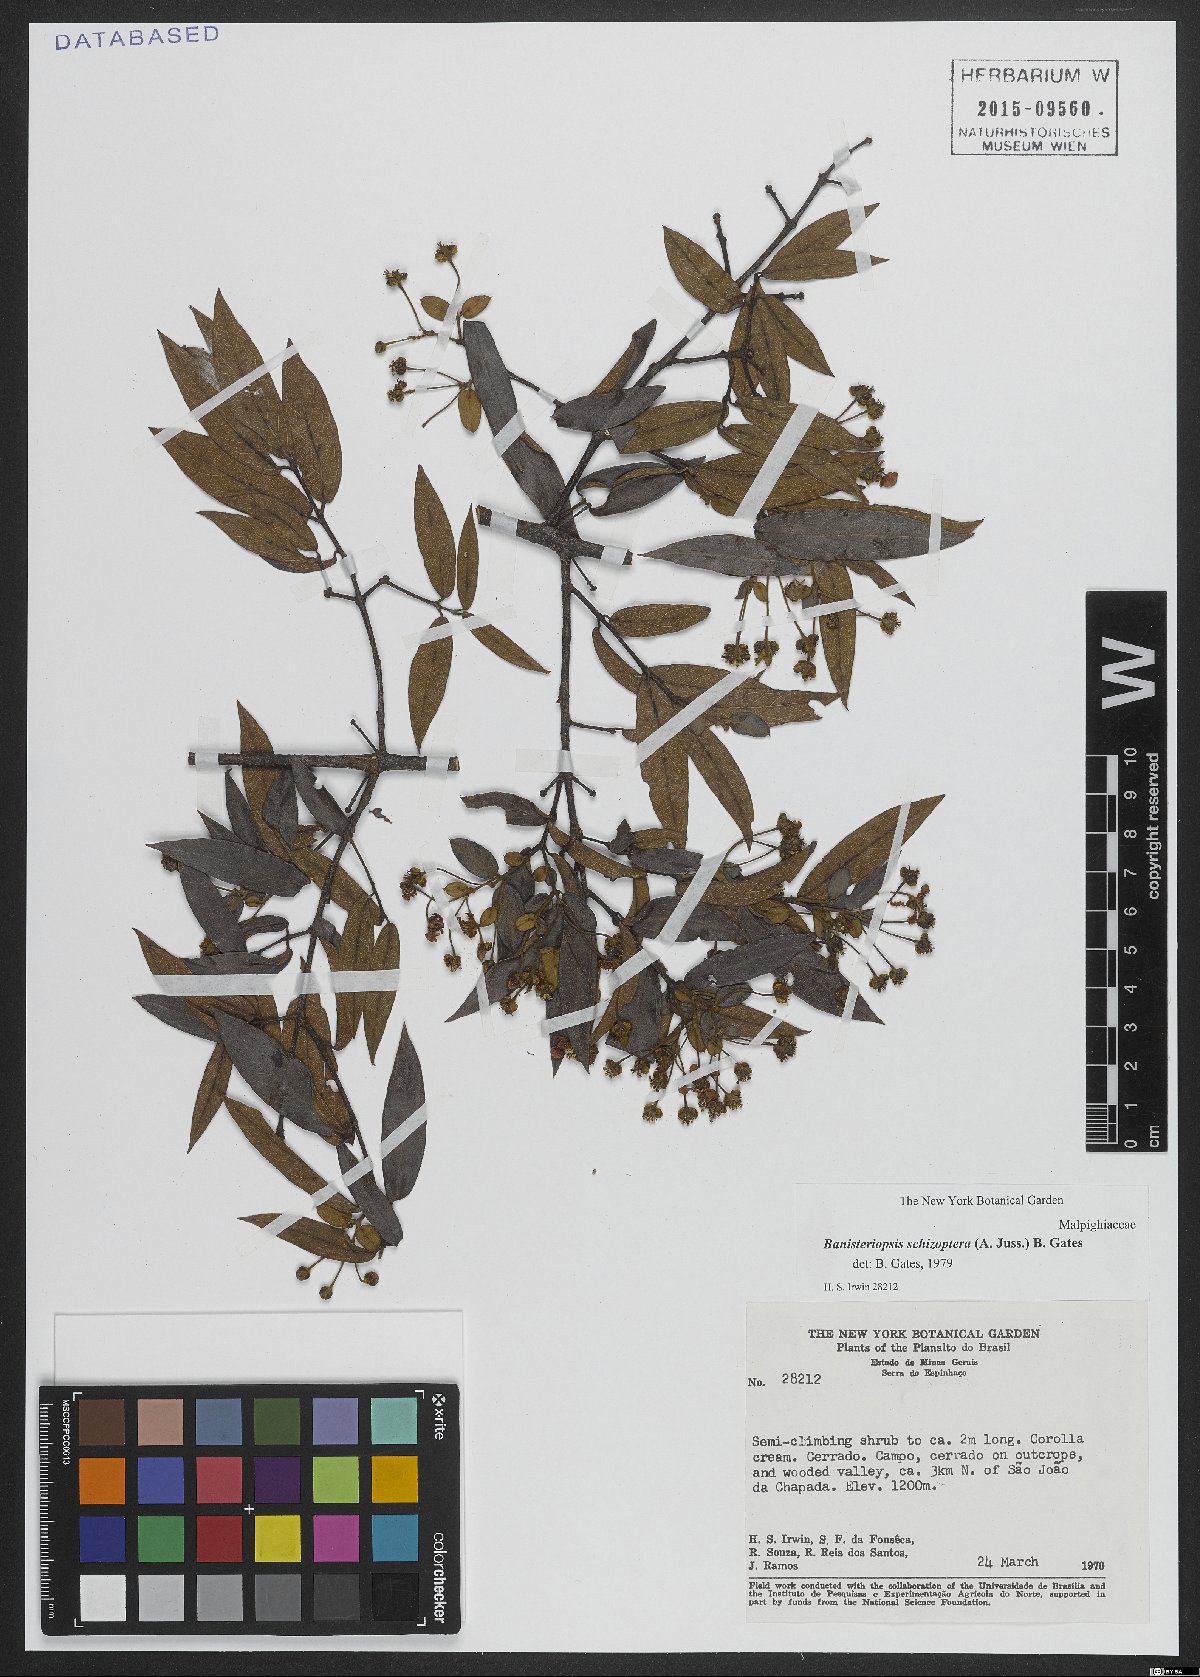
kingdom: Plantae
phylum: Tracheophyta
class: Magnoliopsida
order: Malpighiales
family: Malpighiaceae
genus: Banisteriopsis
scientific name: Banisteriopsis schizoptera
